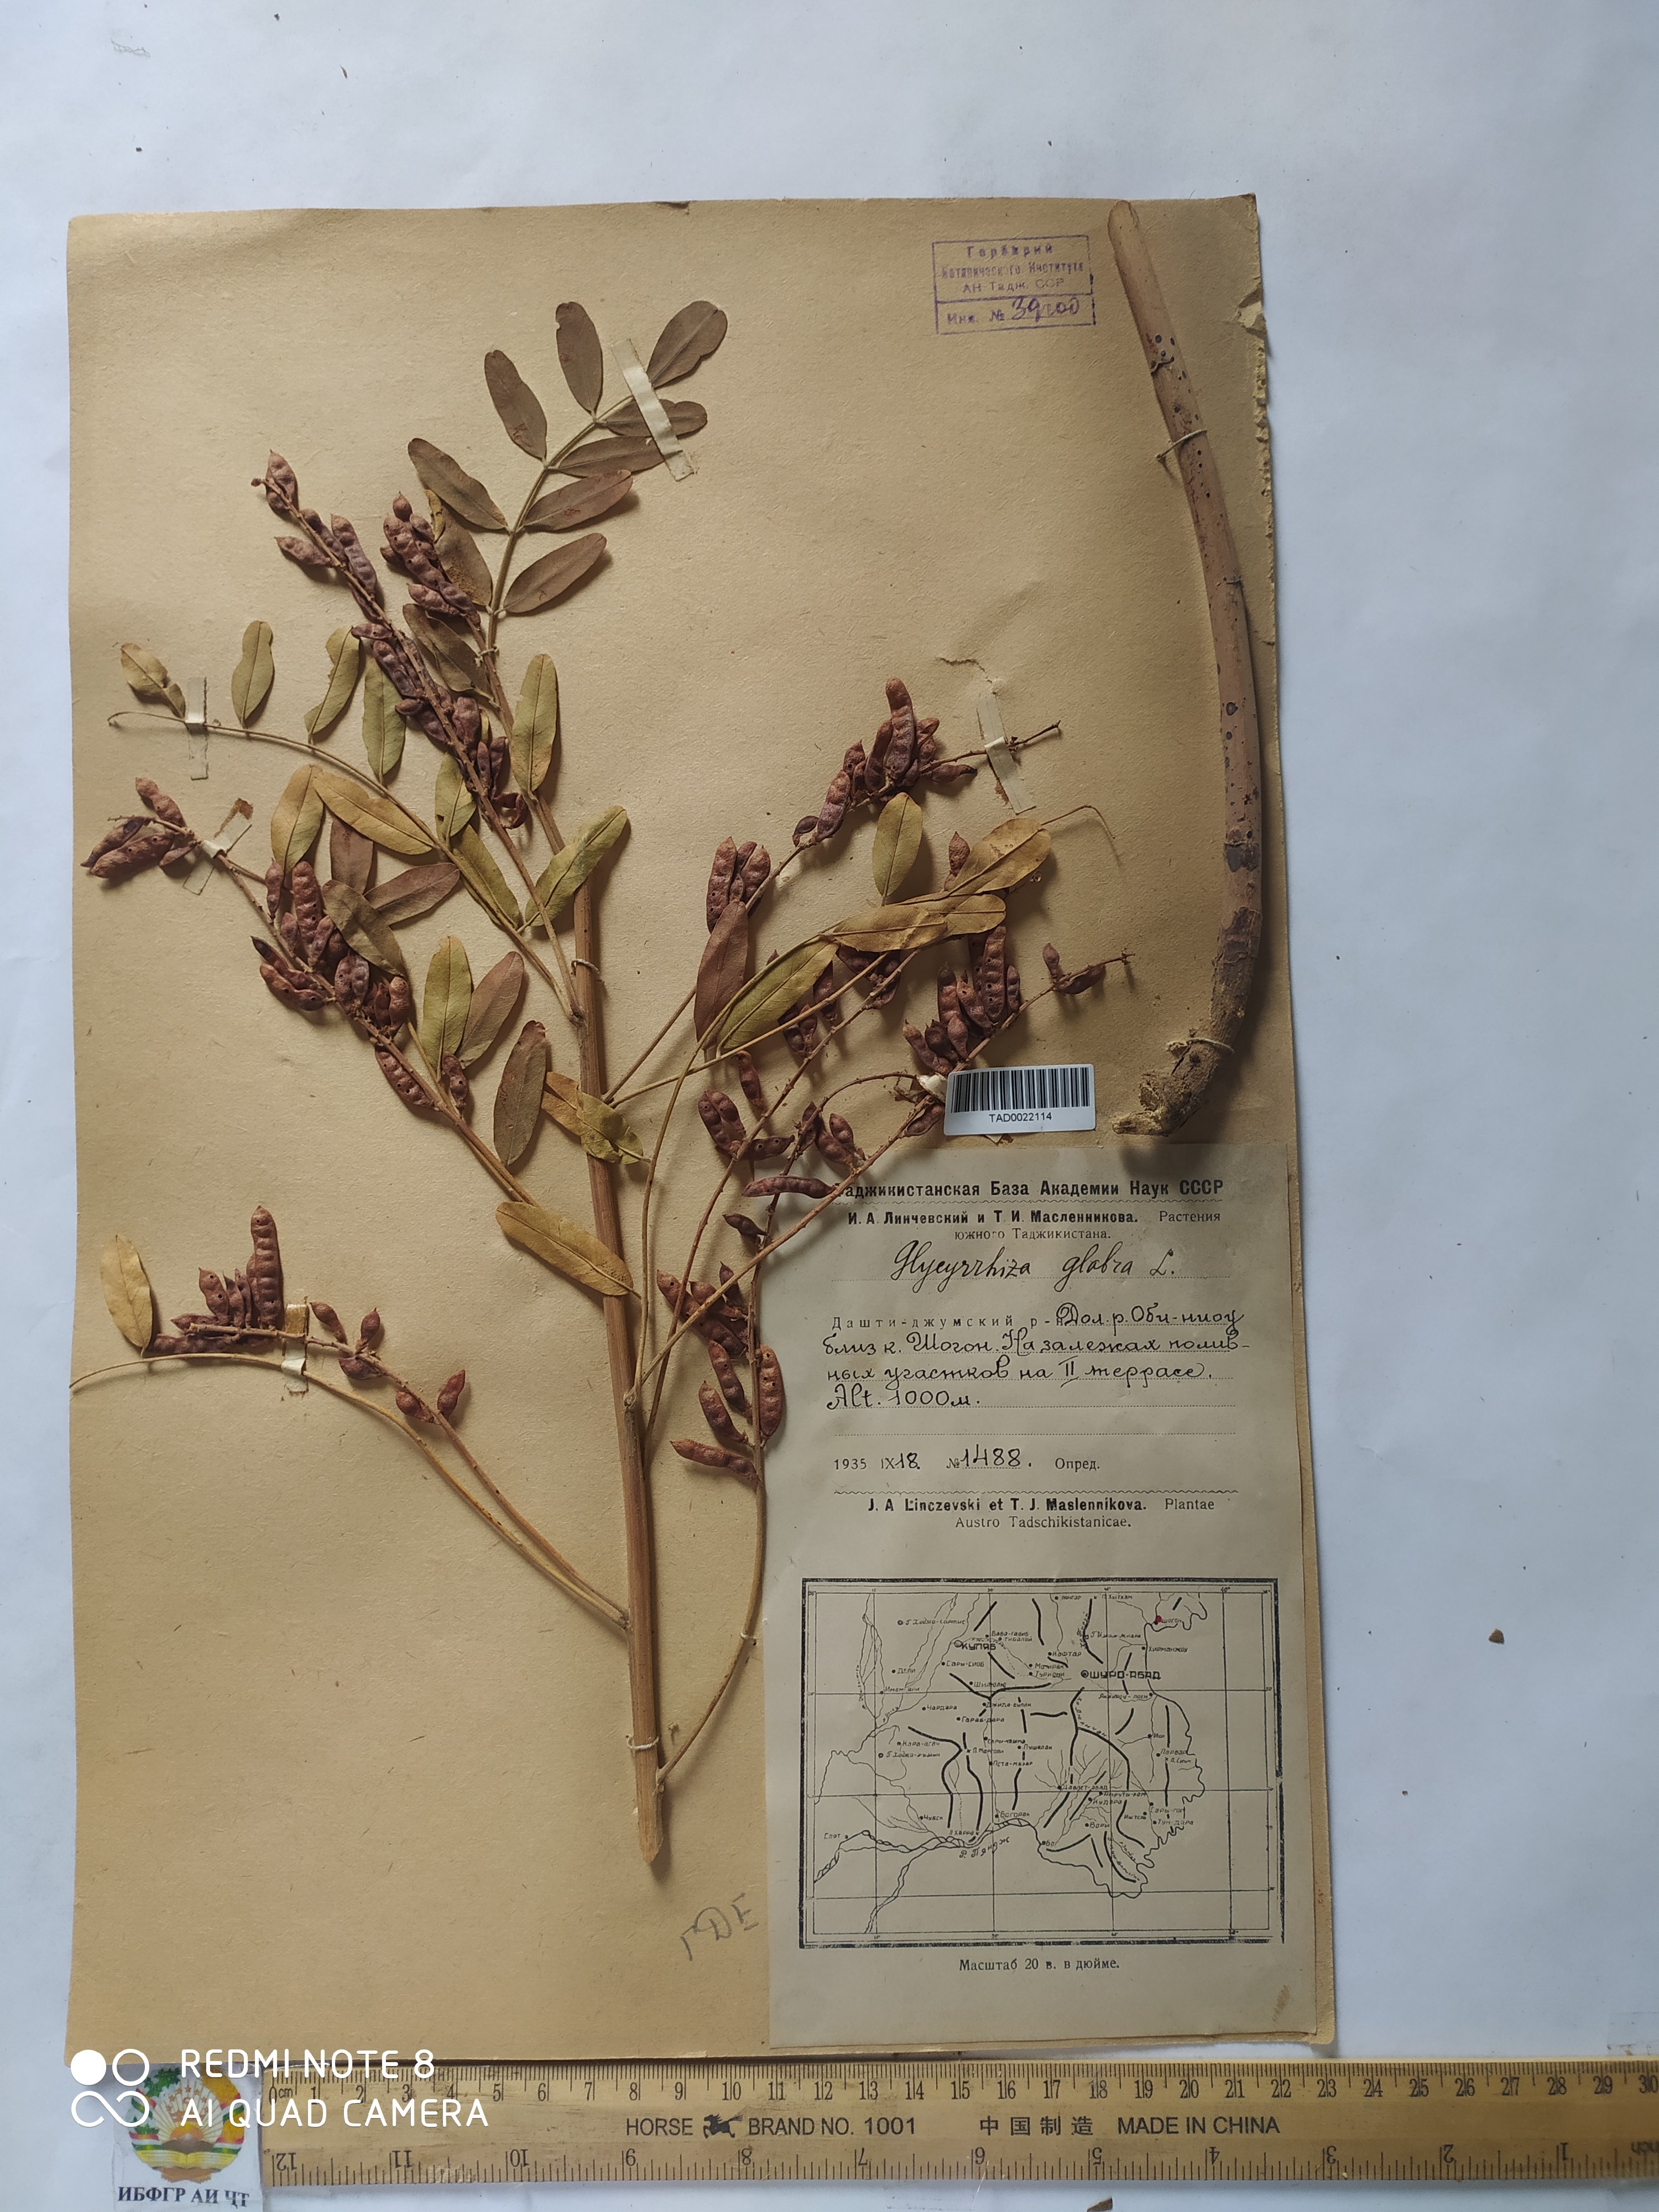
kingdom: Plantae
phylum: Tracheophyta
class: Magnoliopsida
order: Fabales
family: Fabaceae
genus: Glycyrrhiza
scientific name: Glycyrrhiza glabra
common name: Liquorice
